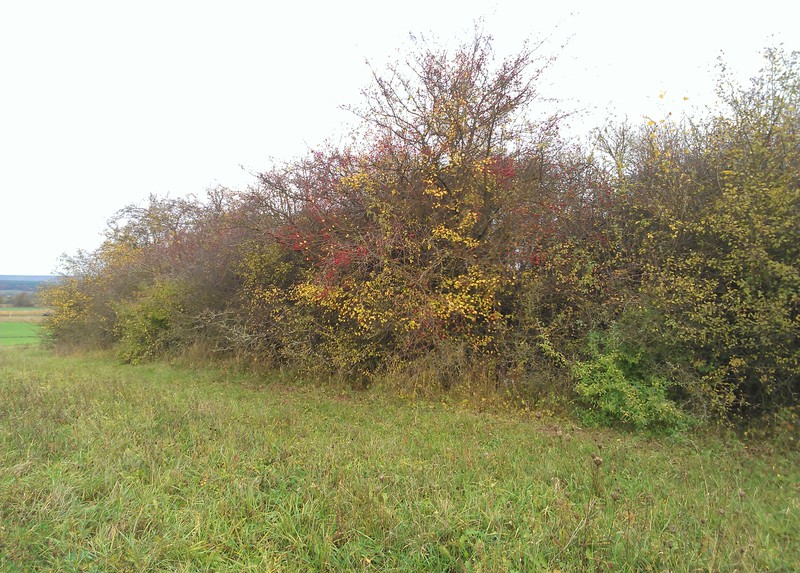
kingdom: Fungi
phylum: Basidiomycota
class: Agaricomycetes
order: Corticiales
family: Corticiaceae
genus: Erythricium
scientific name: Erythricium aurantiacum
